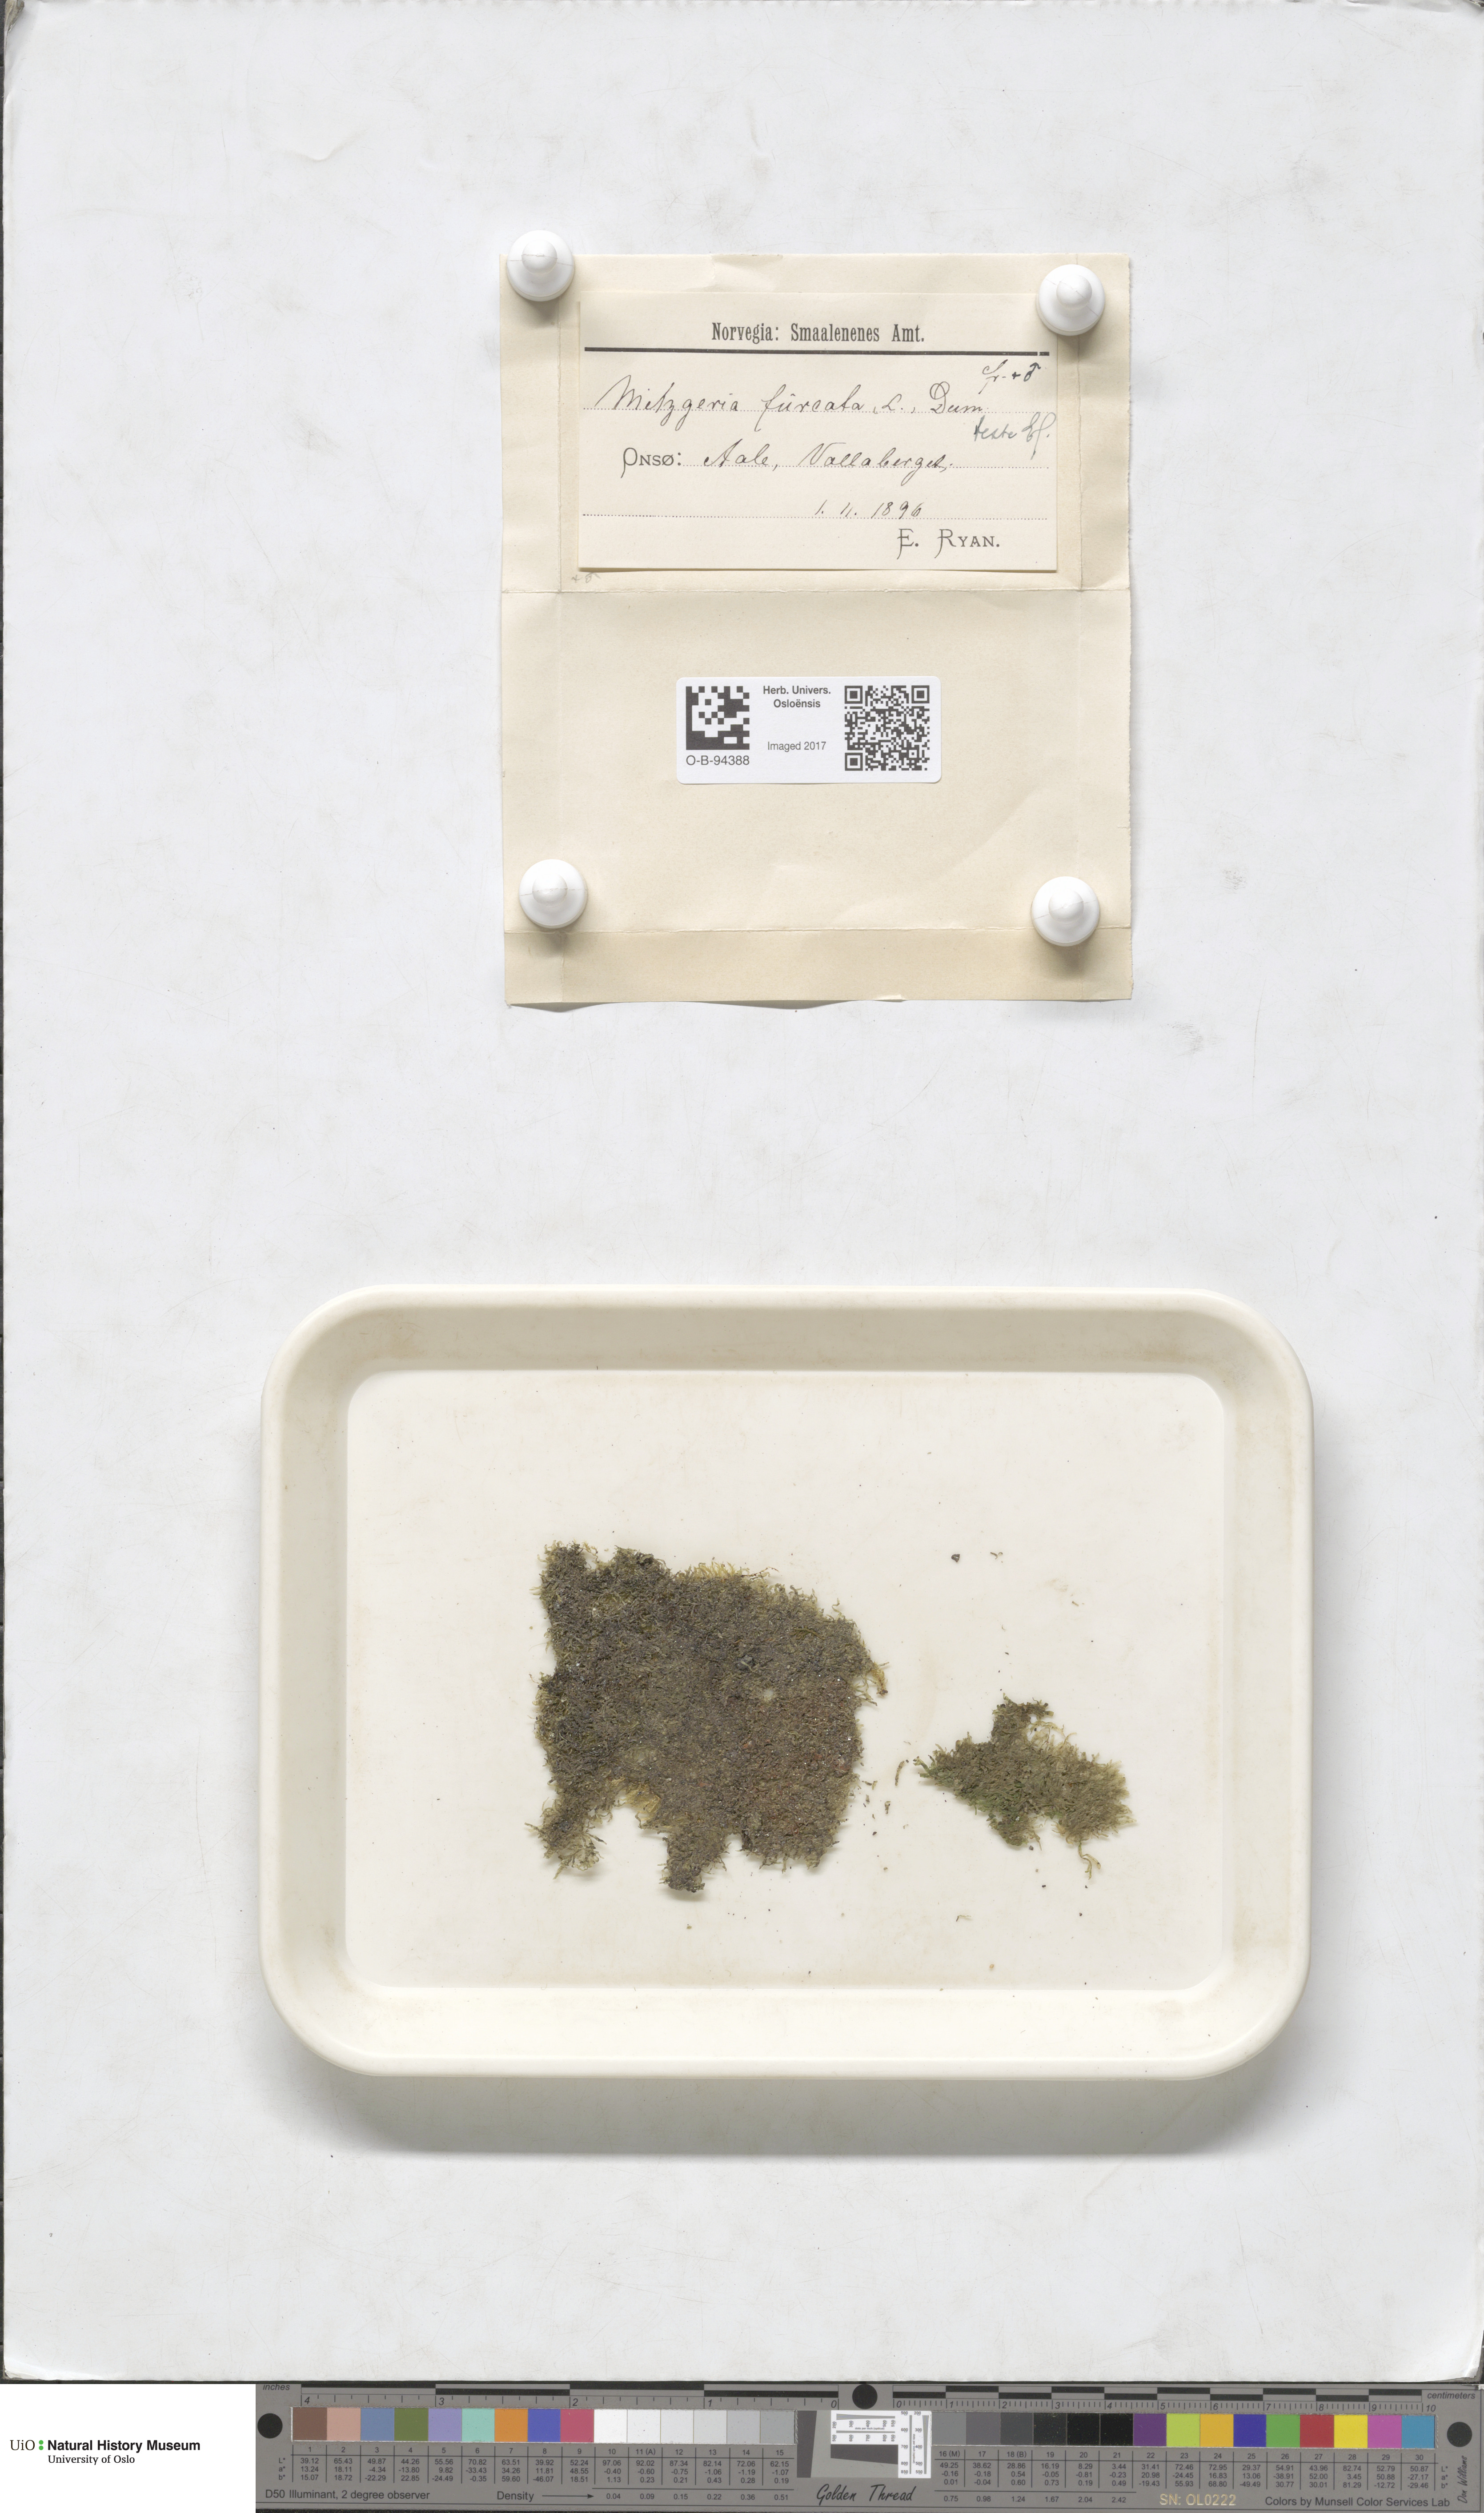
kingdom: Plantae
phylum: Marchantiophyta
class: Jungermanniopsida
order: Metzgeriales
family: Metzgeriaceae
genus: Metzgeria
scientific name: Metzgeria furcata
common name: Forked veilwort
